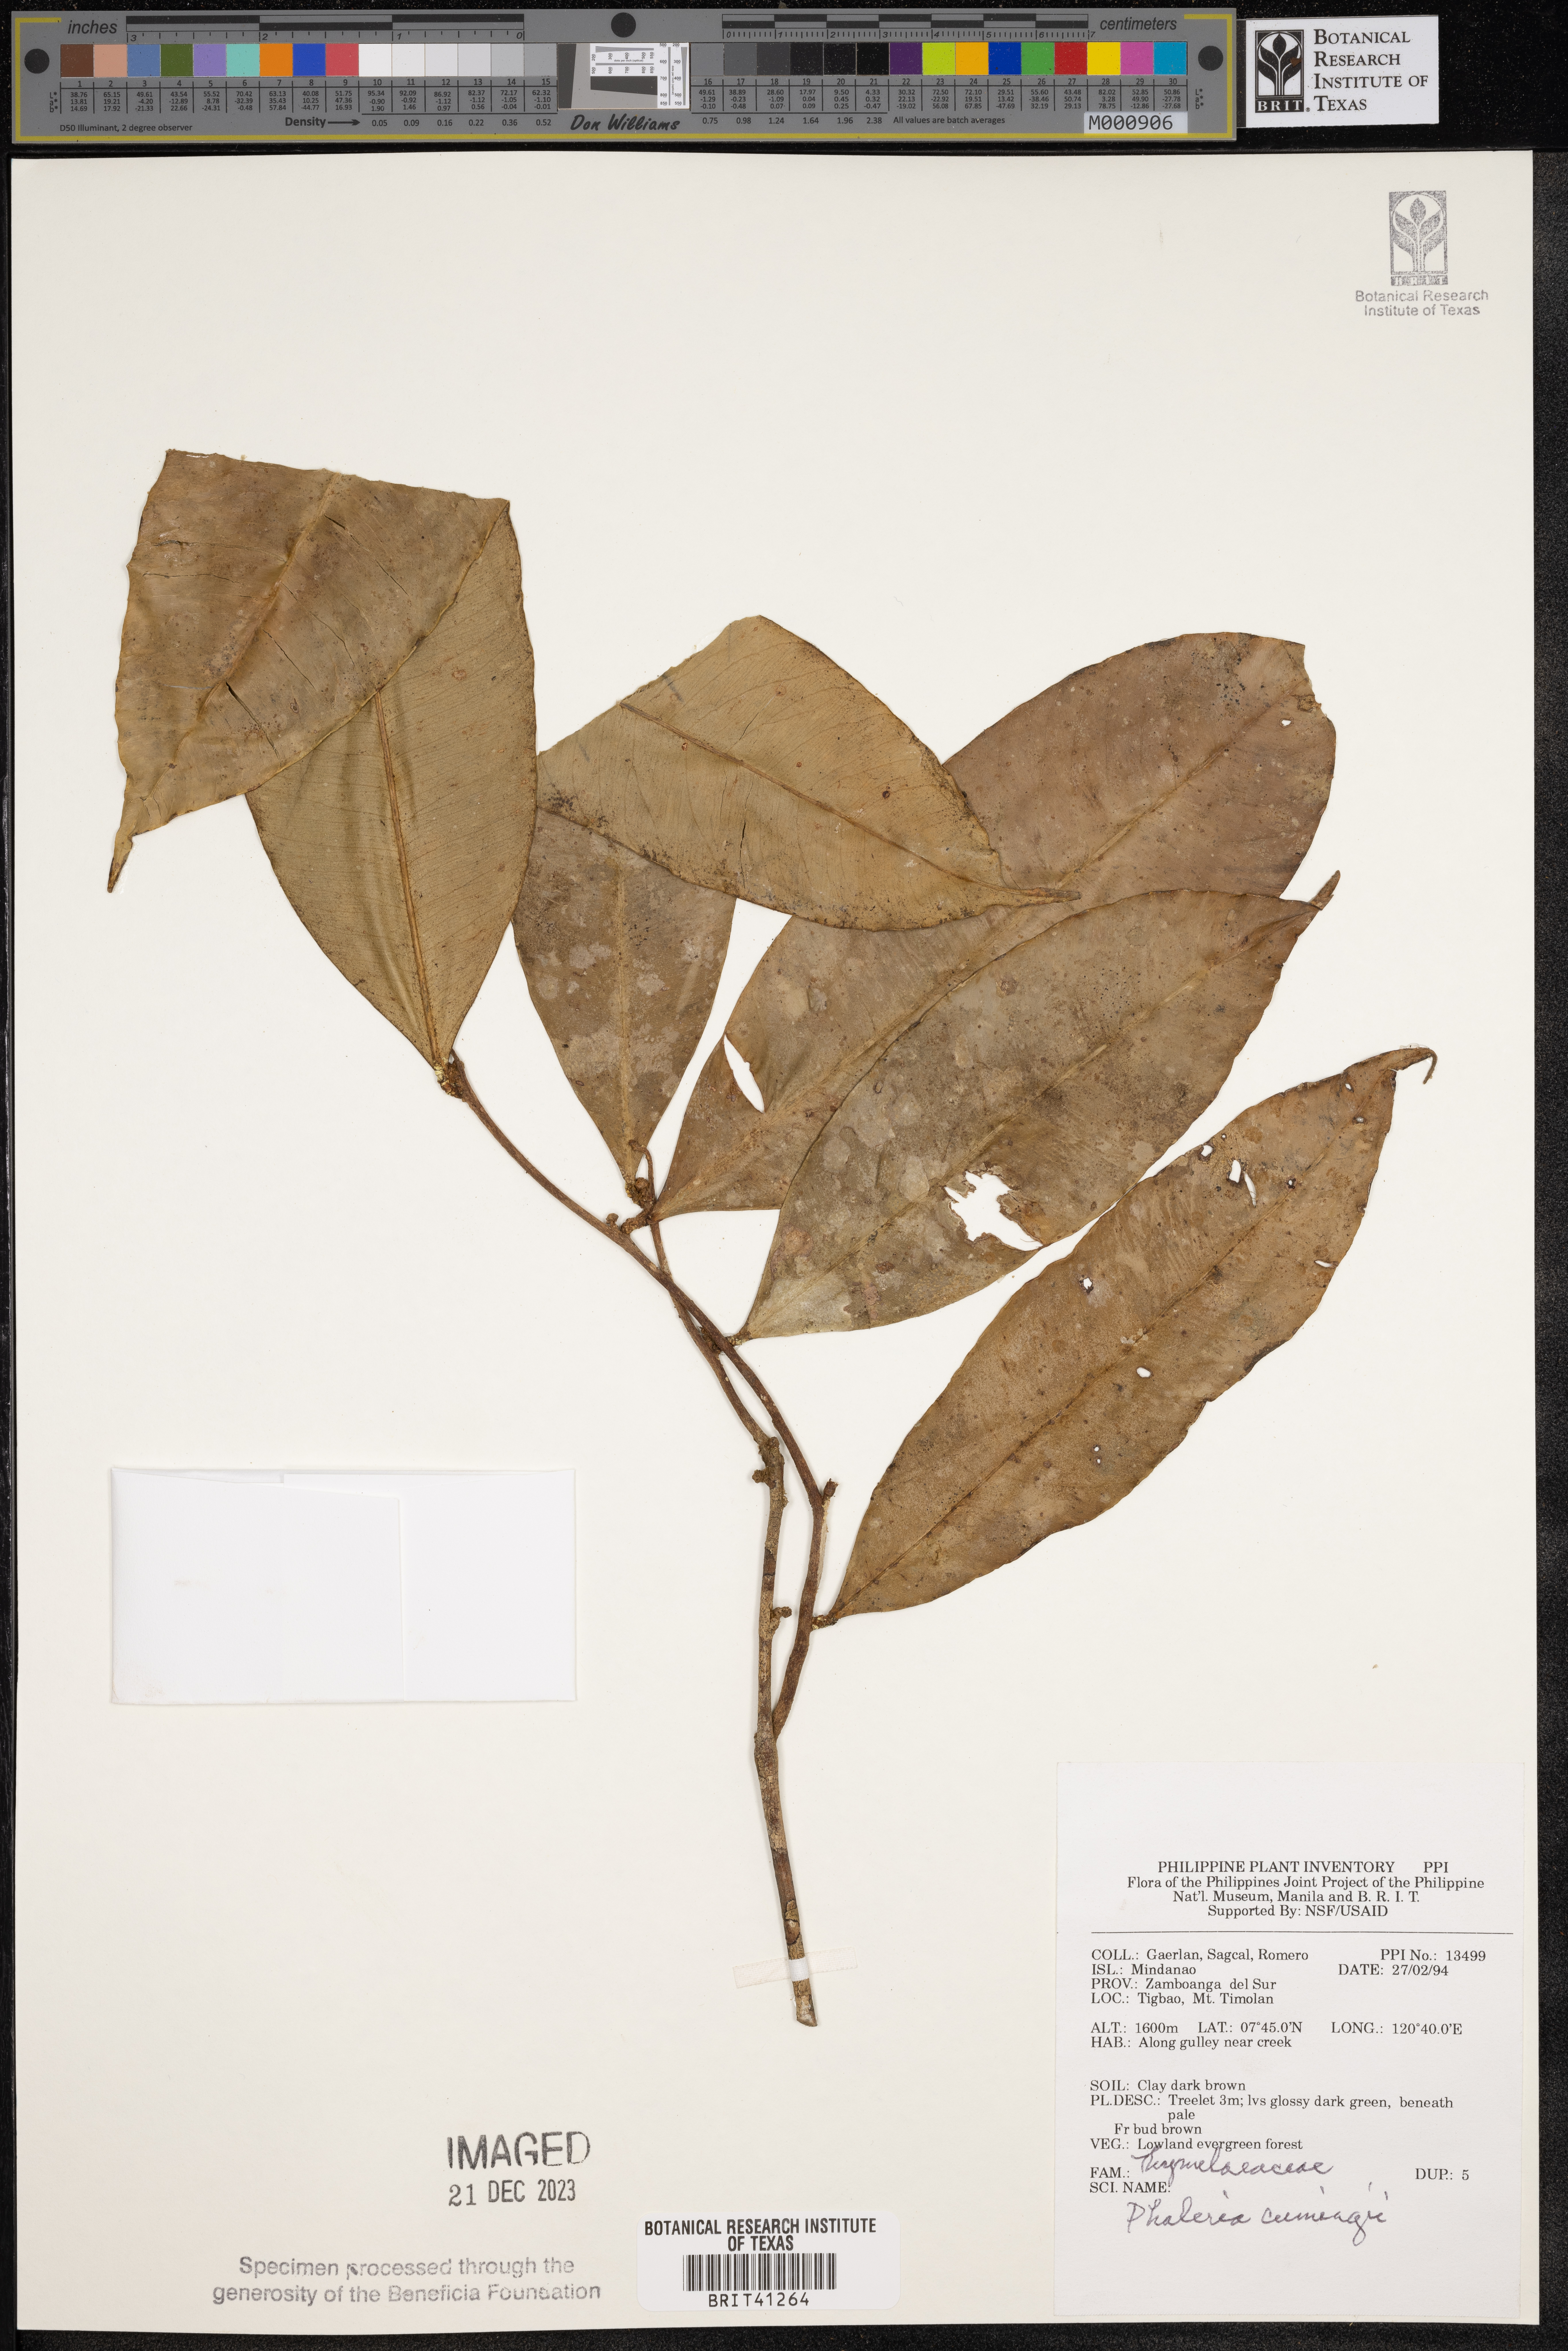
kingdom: Plantae
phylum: Tracheophyta
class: Magnoliopsida
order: Malvales
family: Thymelaeaceae
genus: Phaleria
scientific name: Phaleria capitata
